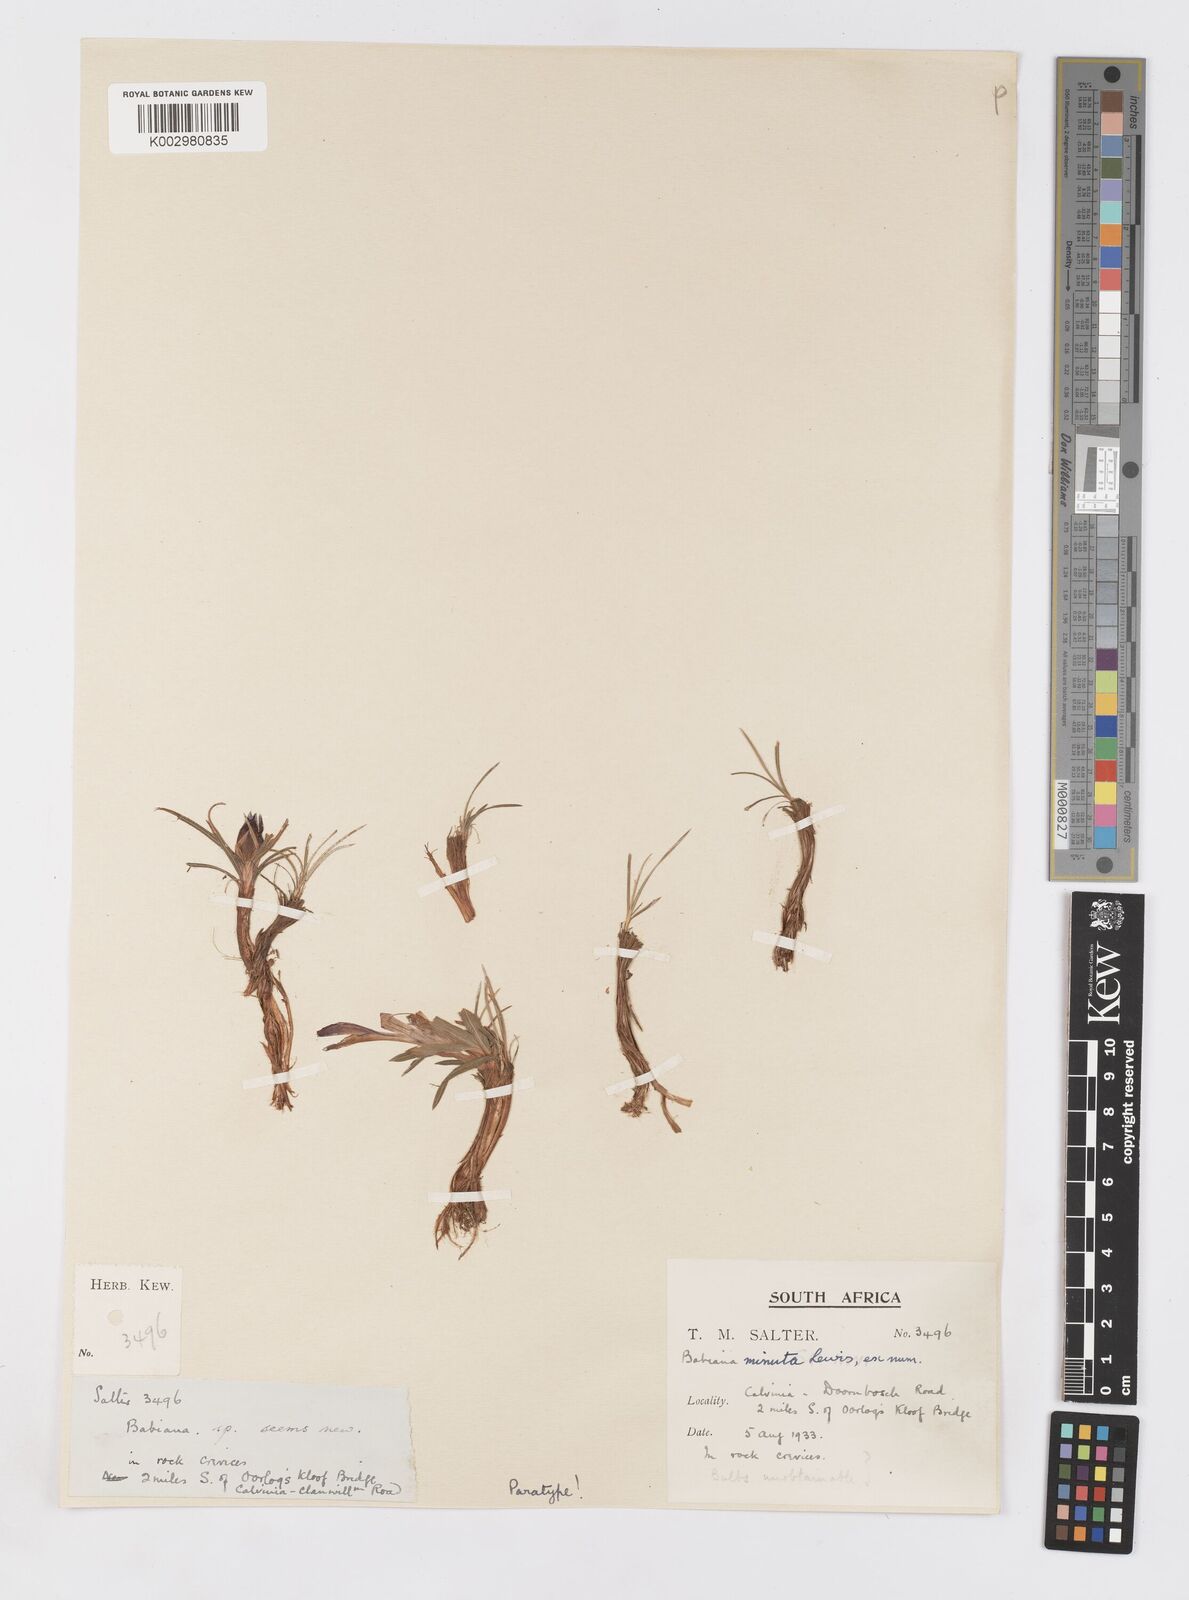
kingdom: Plantae
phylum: Tracheophyta
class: Liliopsida
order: Asparagales
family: Iridaceae
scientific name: Iridaceae
